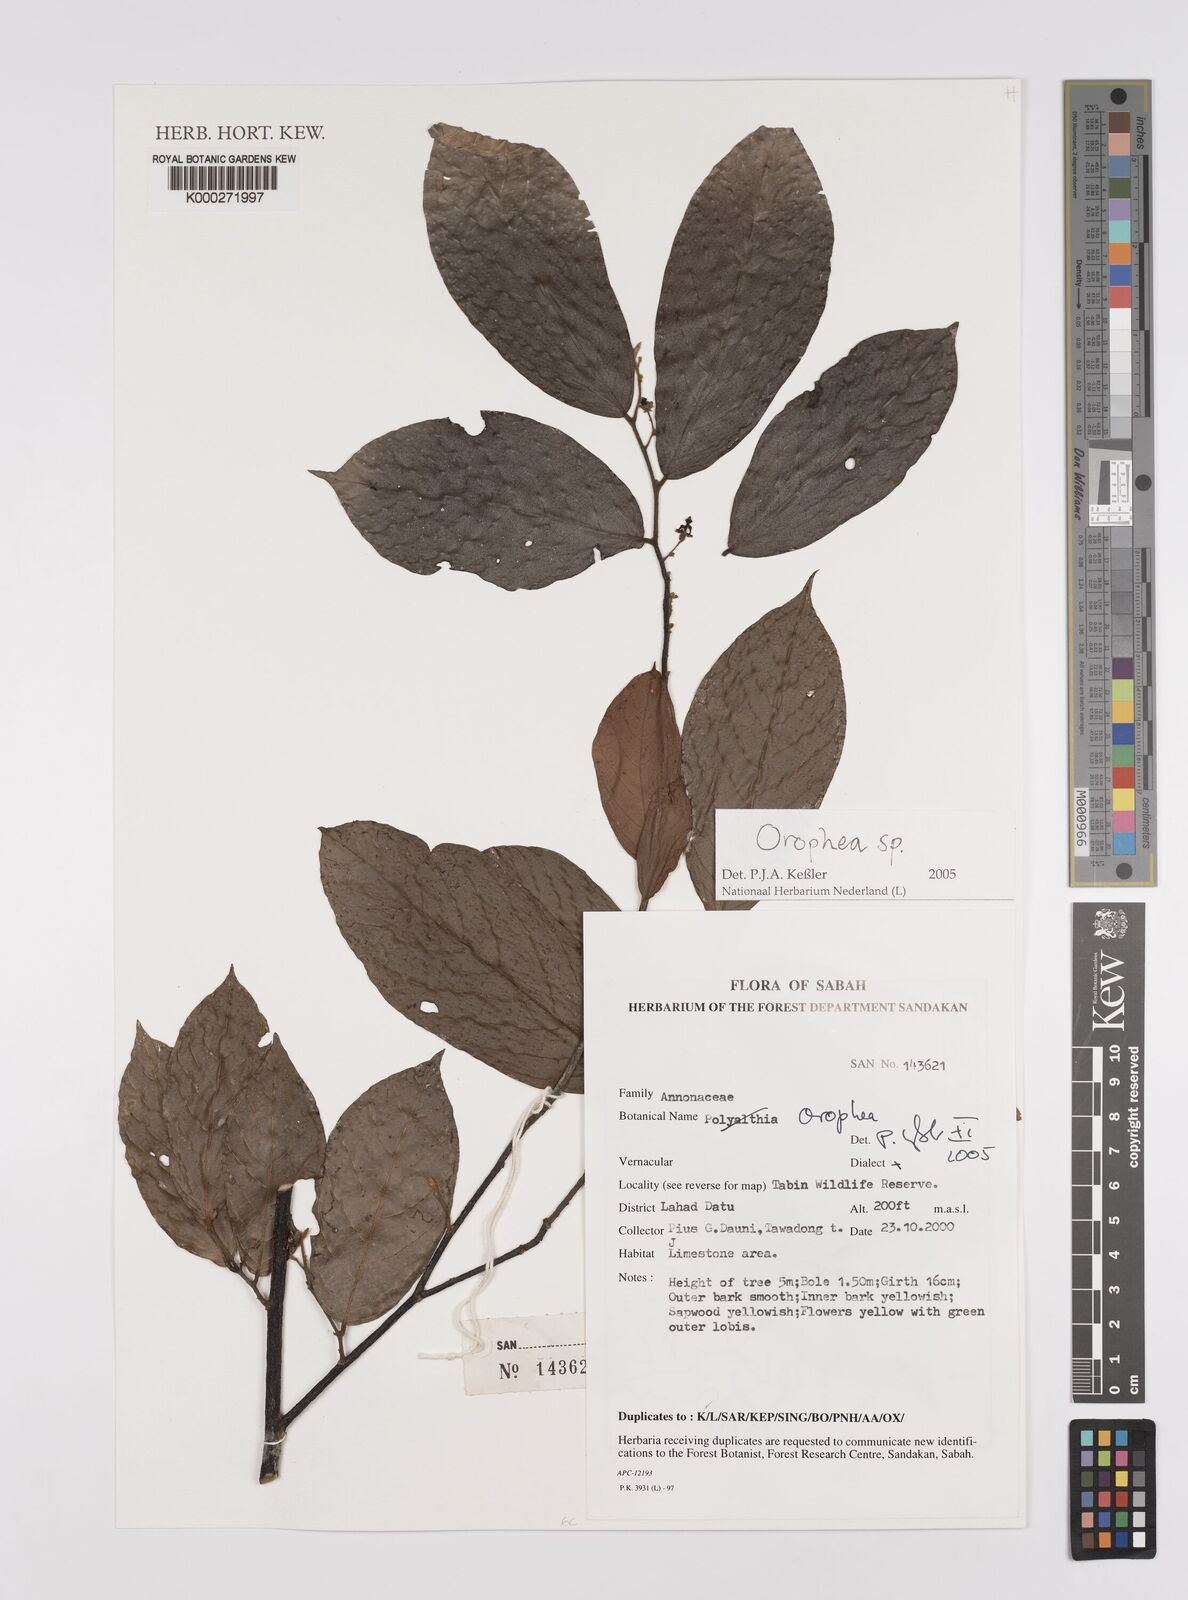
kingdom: Plantae
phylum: Tracheophyta
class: Magnoliopsida
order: Magnoliales
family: Annonaceae
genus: Orophea
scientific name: Orophea
